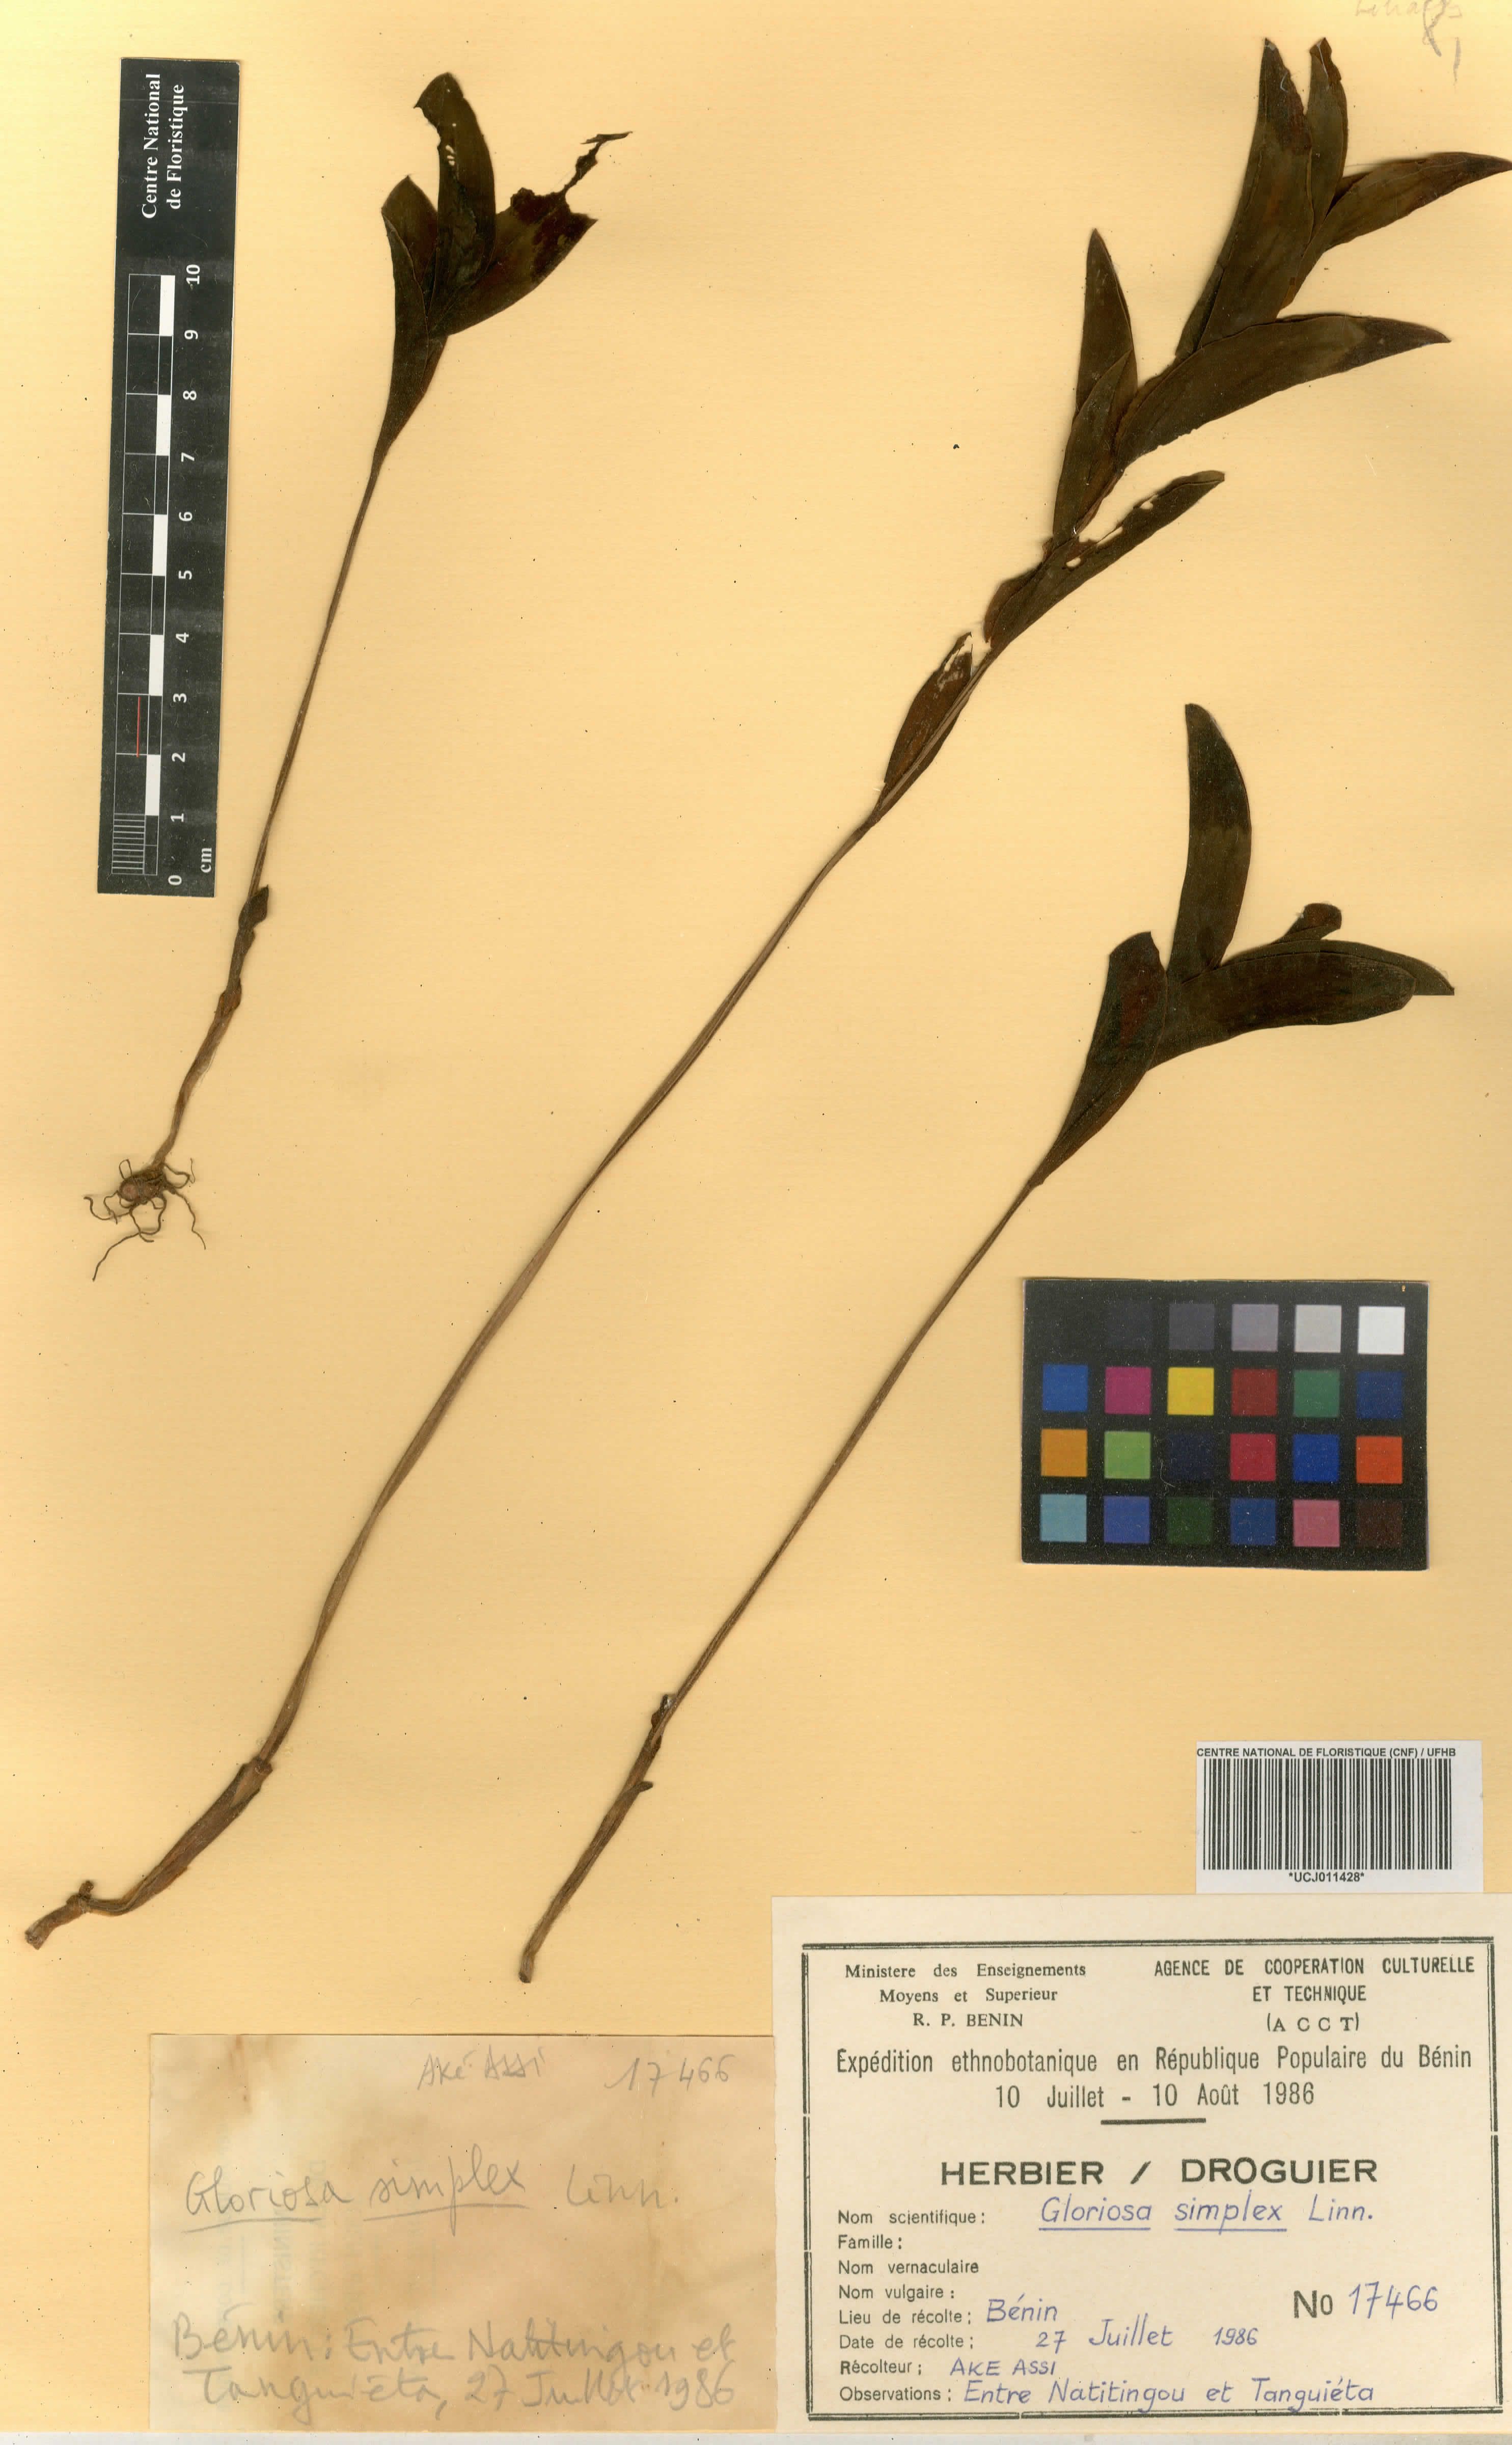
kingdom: Plantae
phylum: Tracheophyta
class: Liliopsida
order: Liliales
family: Colchicaceae
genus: Gloriosa
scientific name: Gloriosa simplex
